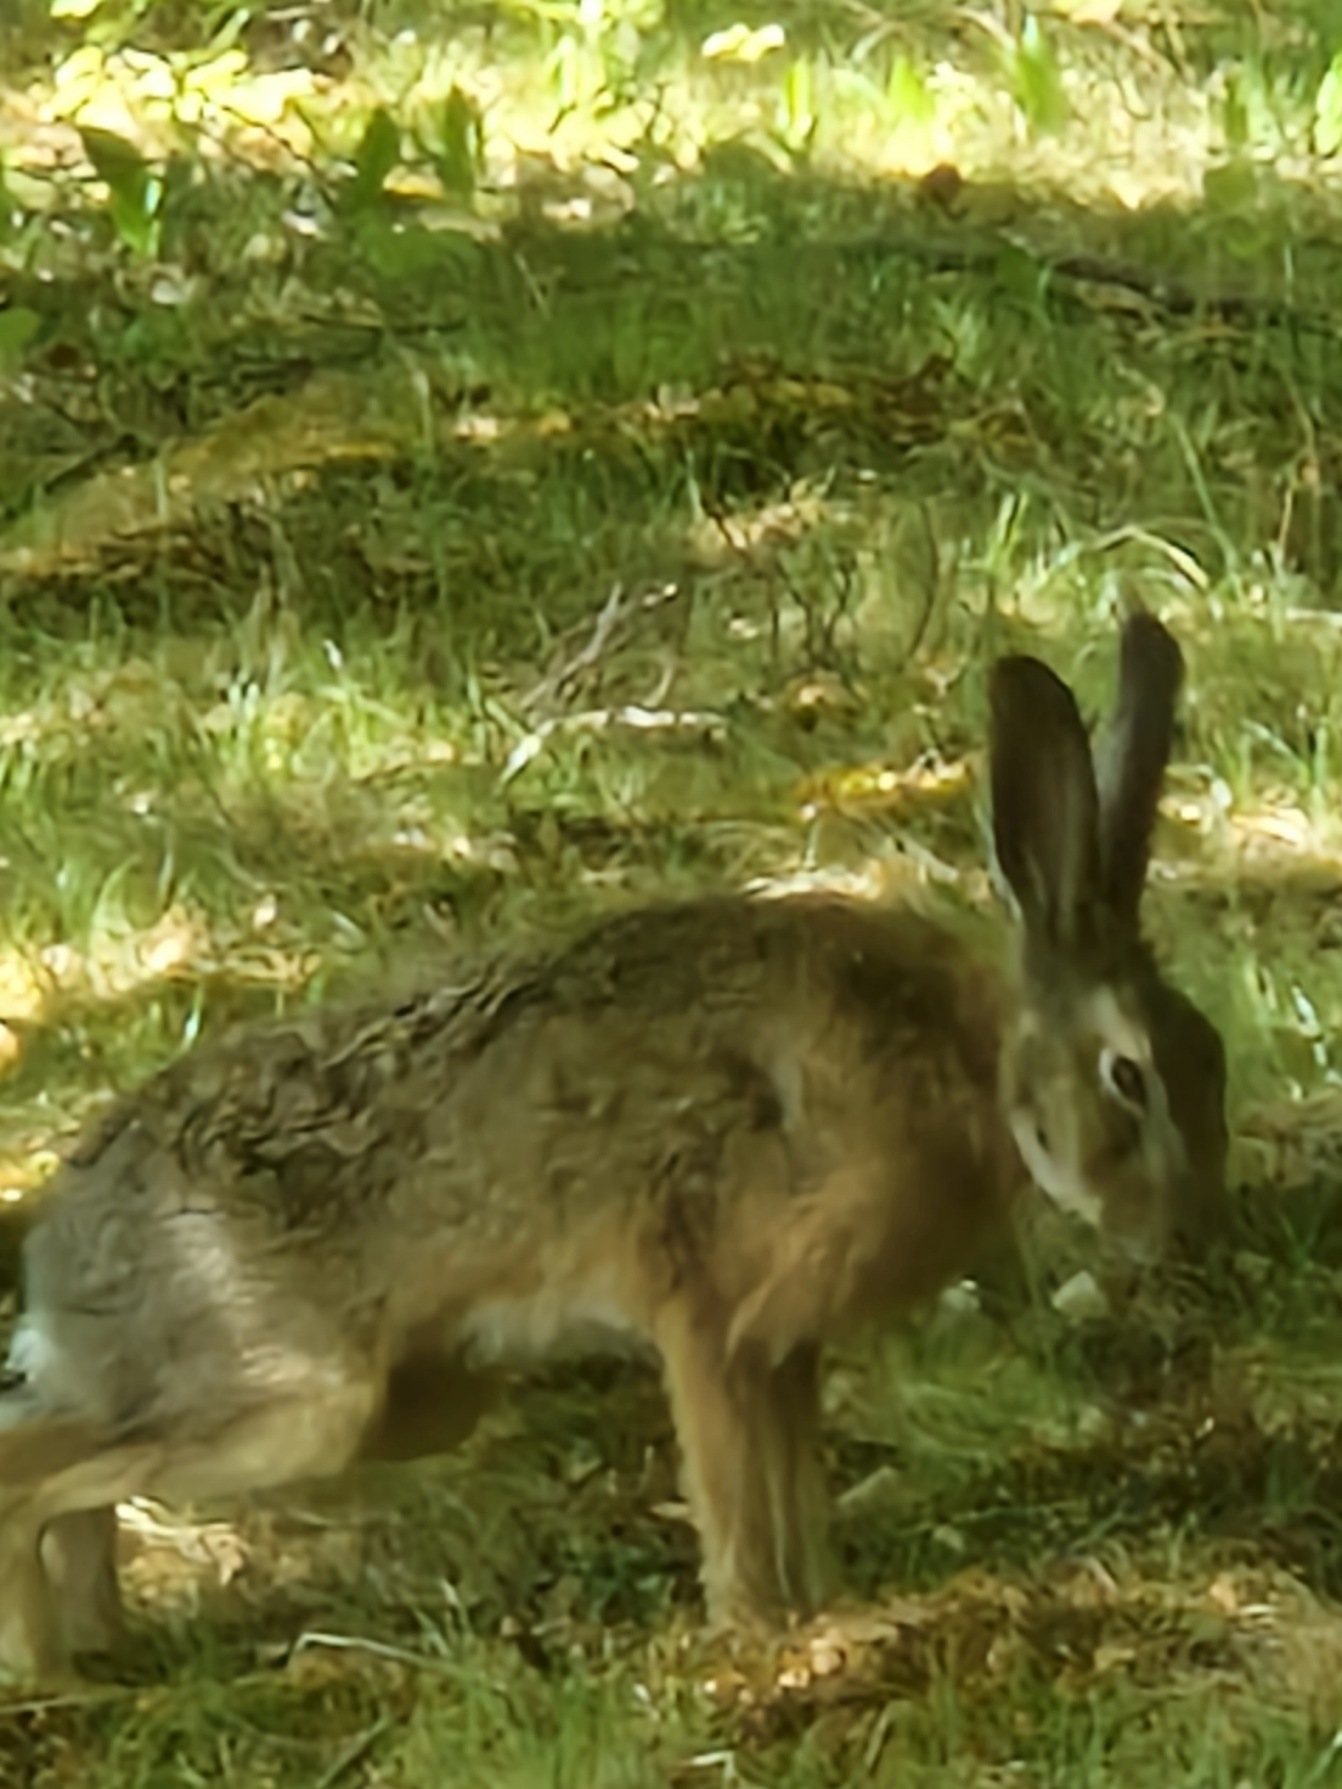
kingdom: Animalia
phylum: Chordata
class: Mammalia
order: Lagomorpha
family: Leporidae
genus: Lepus
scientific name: Lepus europaeus
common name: Hare
